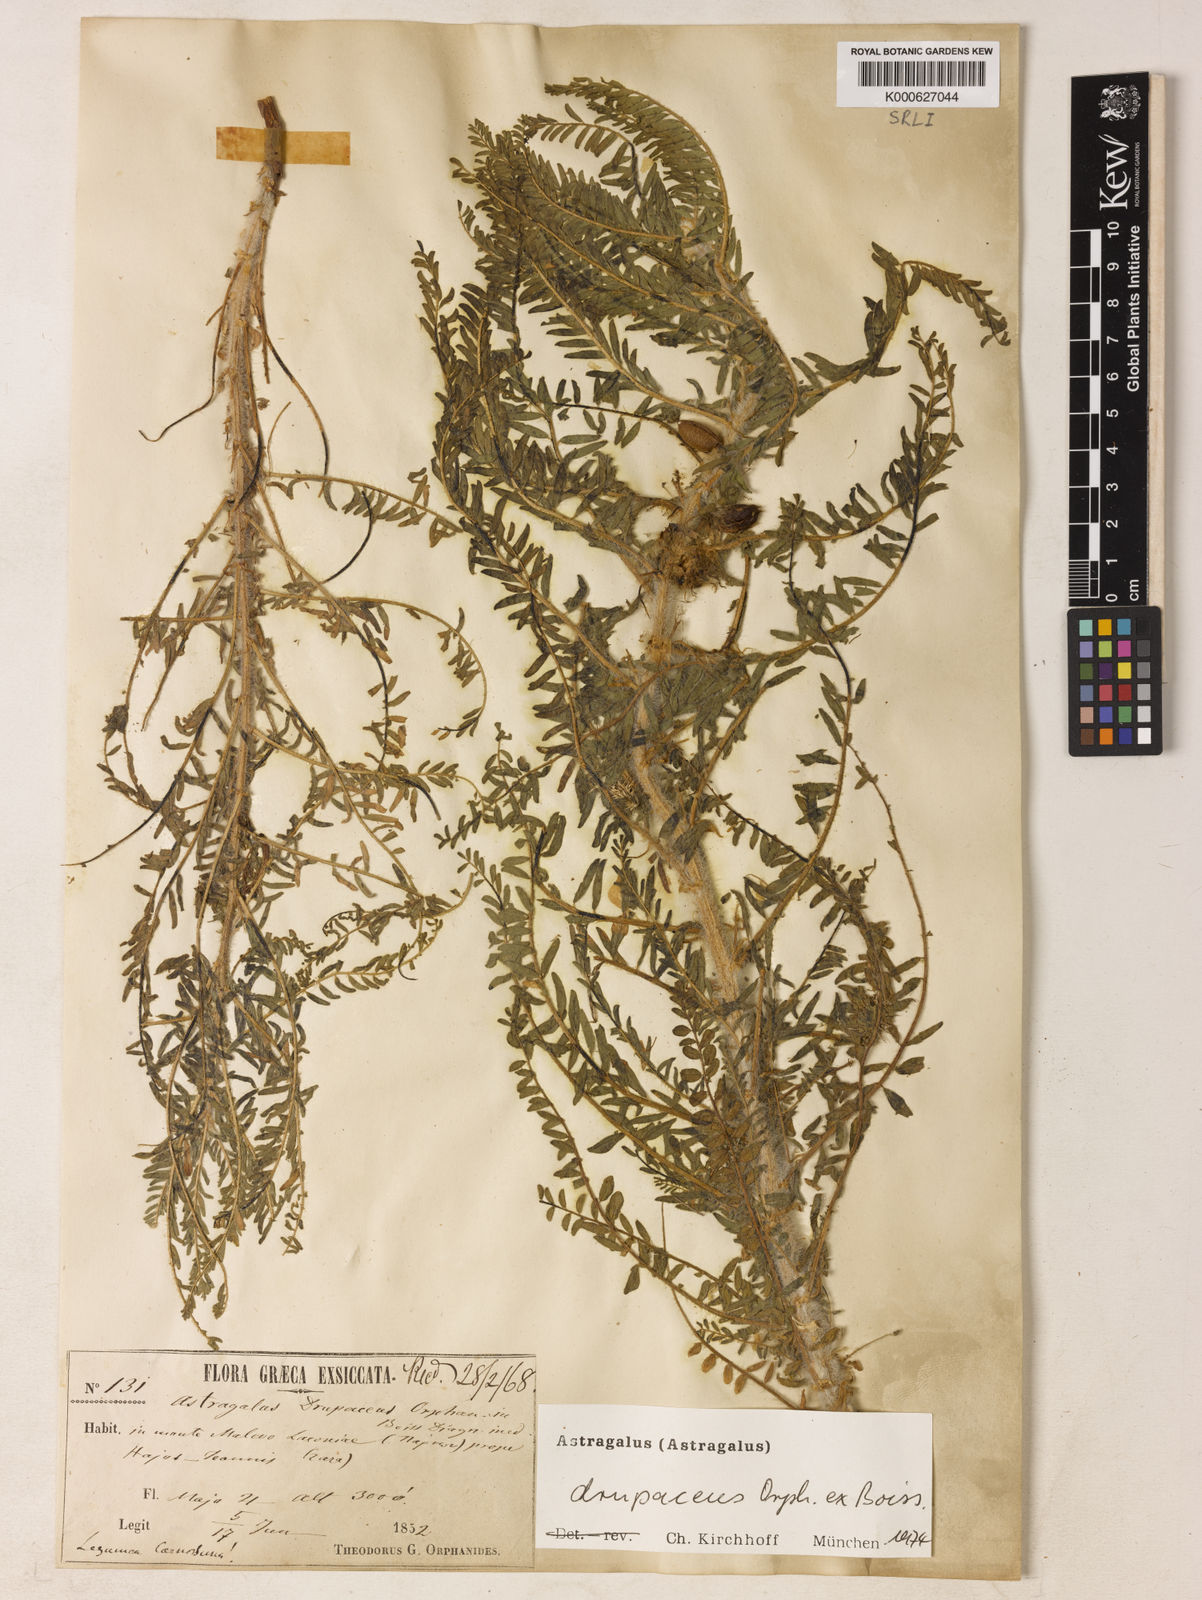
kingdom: Plantae
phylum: Tracheophyta
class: Magnoliopsida
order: Fabales
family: Fabaceae
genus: Astragalus
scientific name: Astragalus drupaceus
